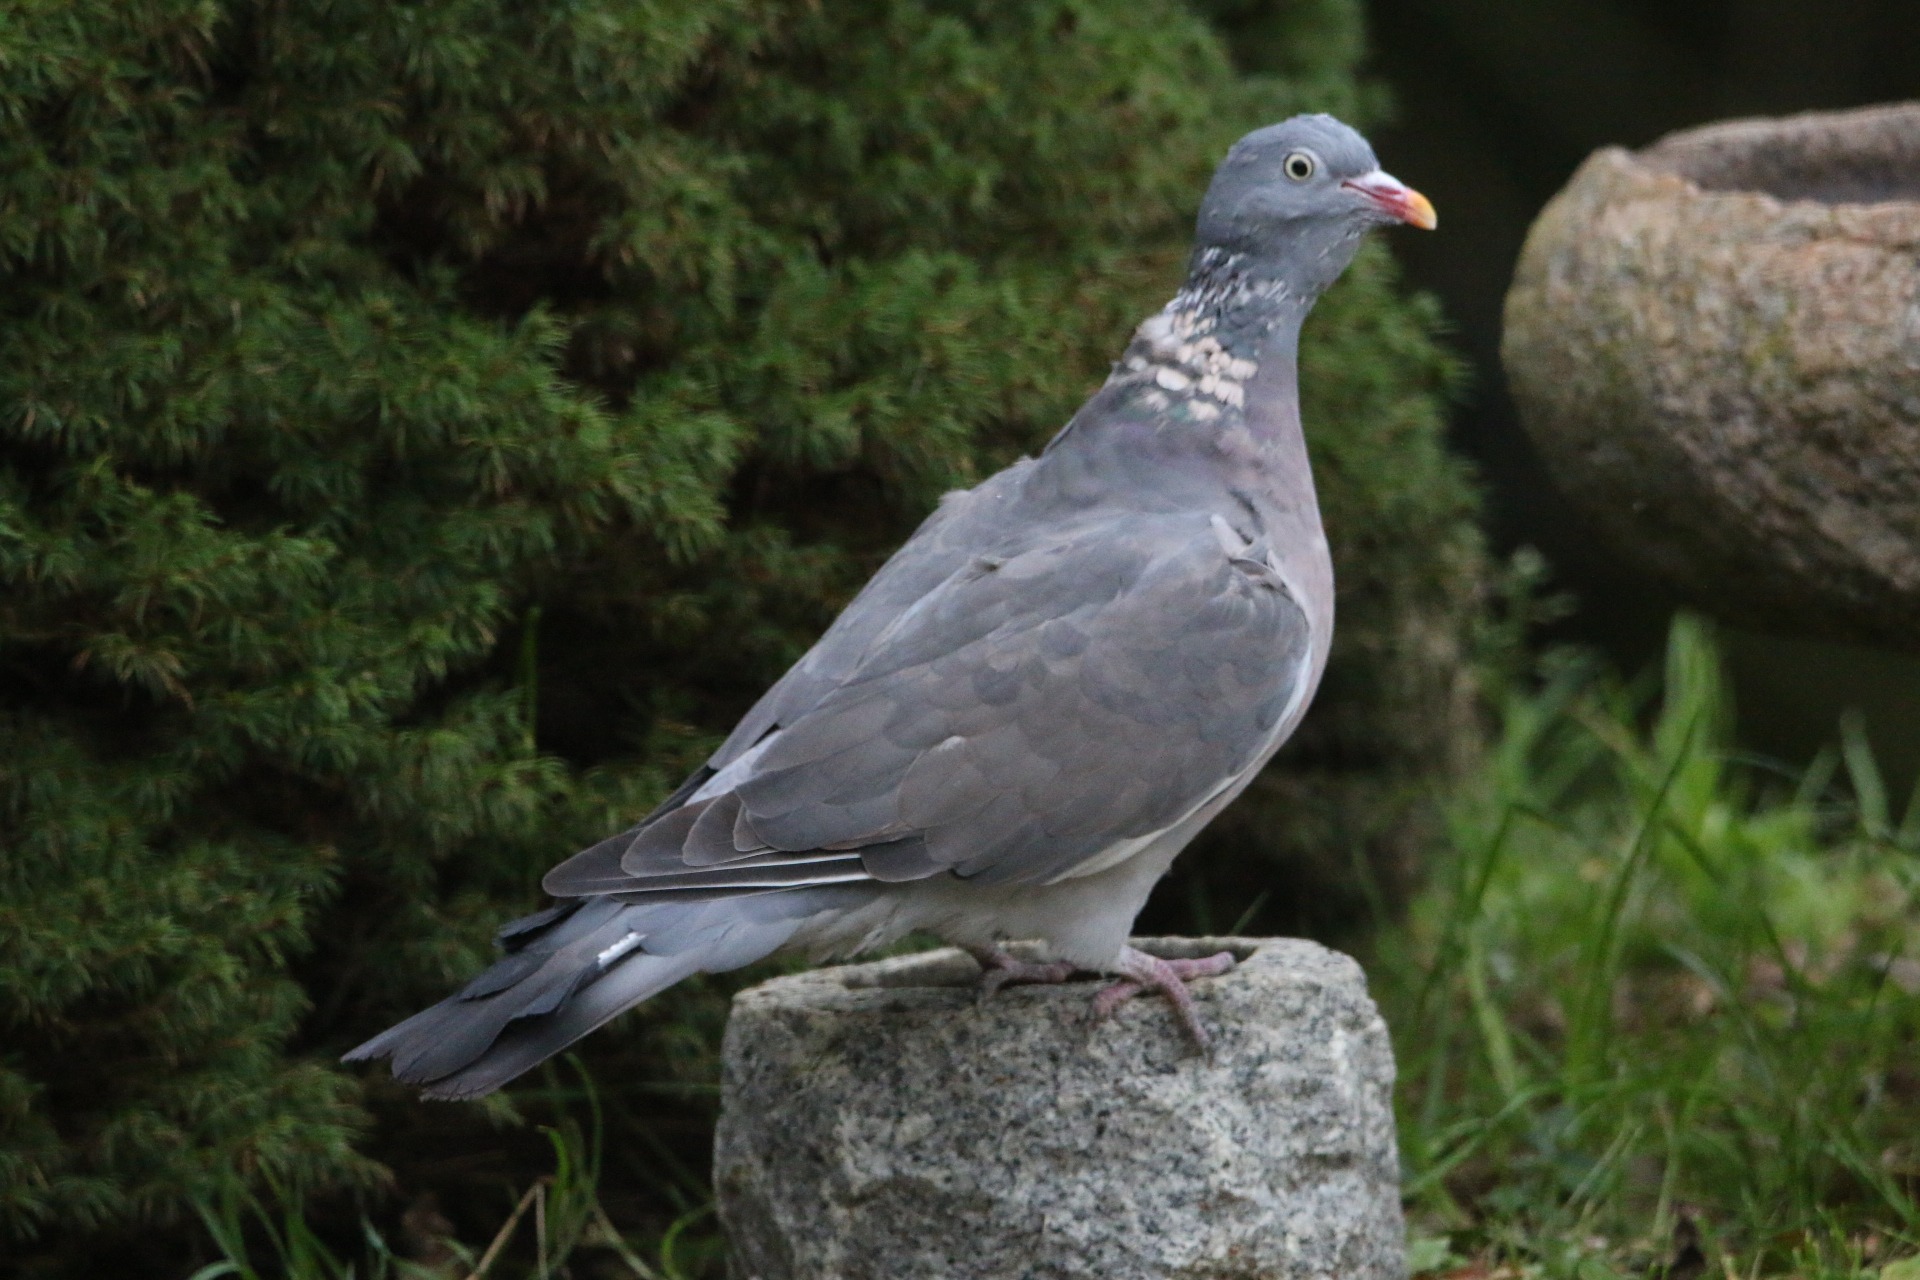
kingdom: Animalia
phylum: Chordata
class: Aves
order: Columbiformes
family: Columbidae
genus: Columba
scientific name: Columba palumbus
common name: Ringdue
